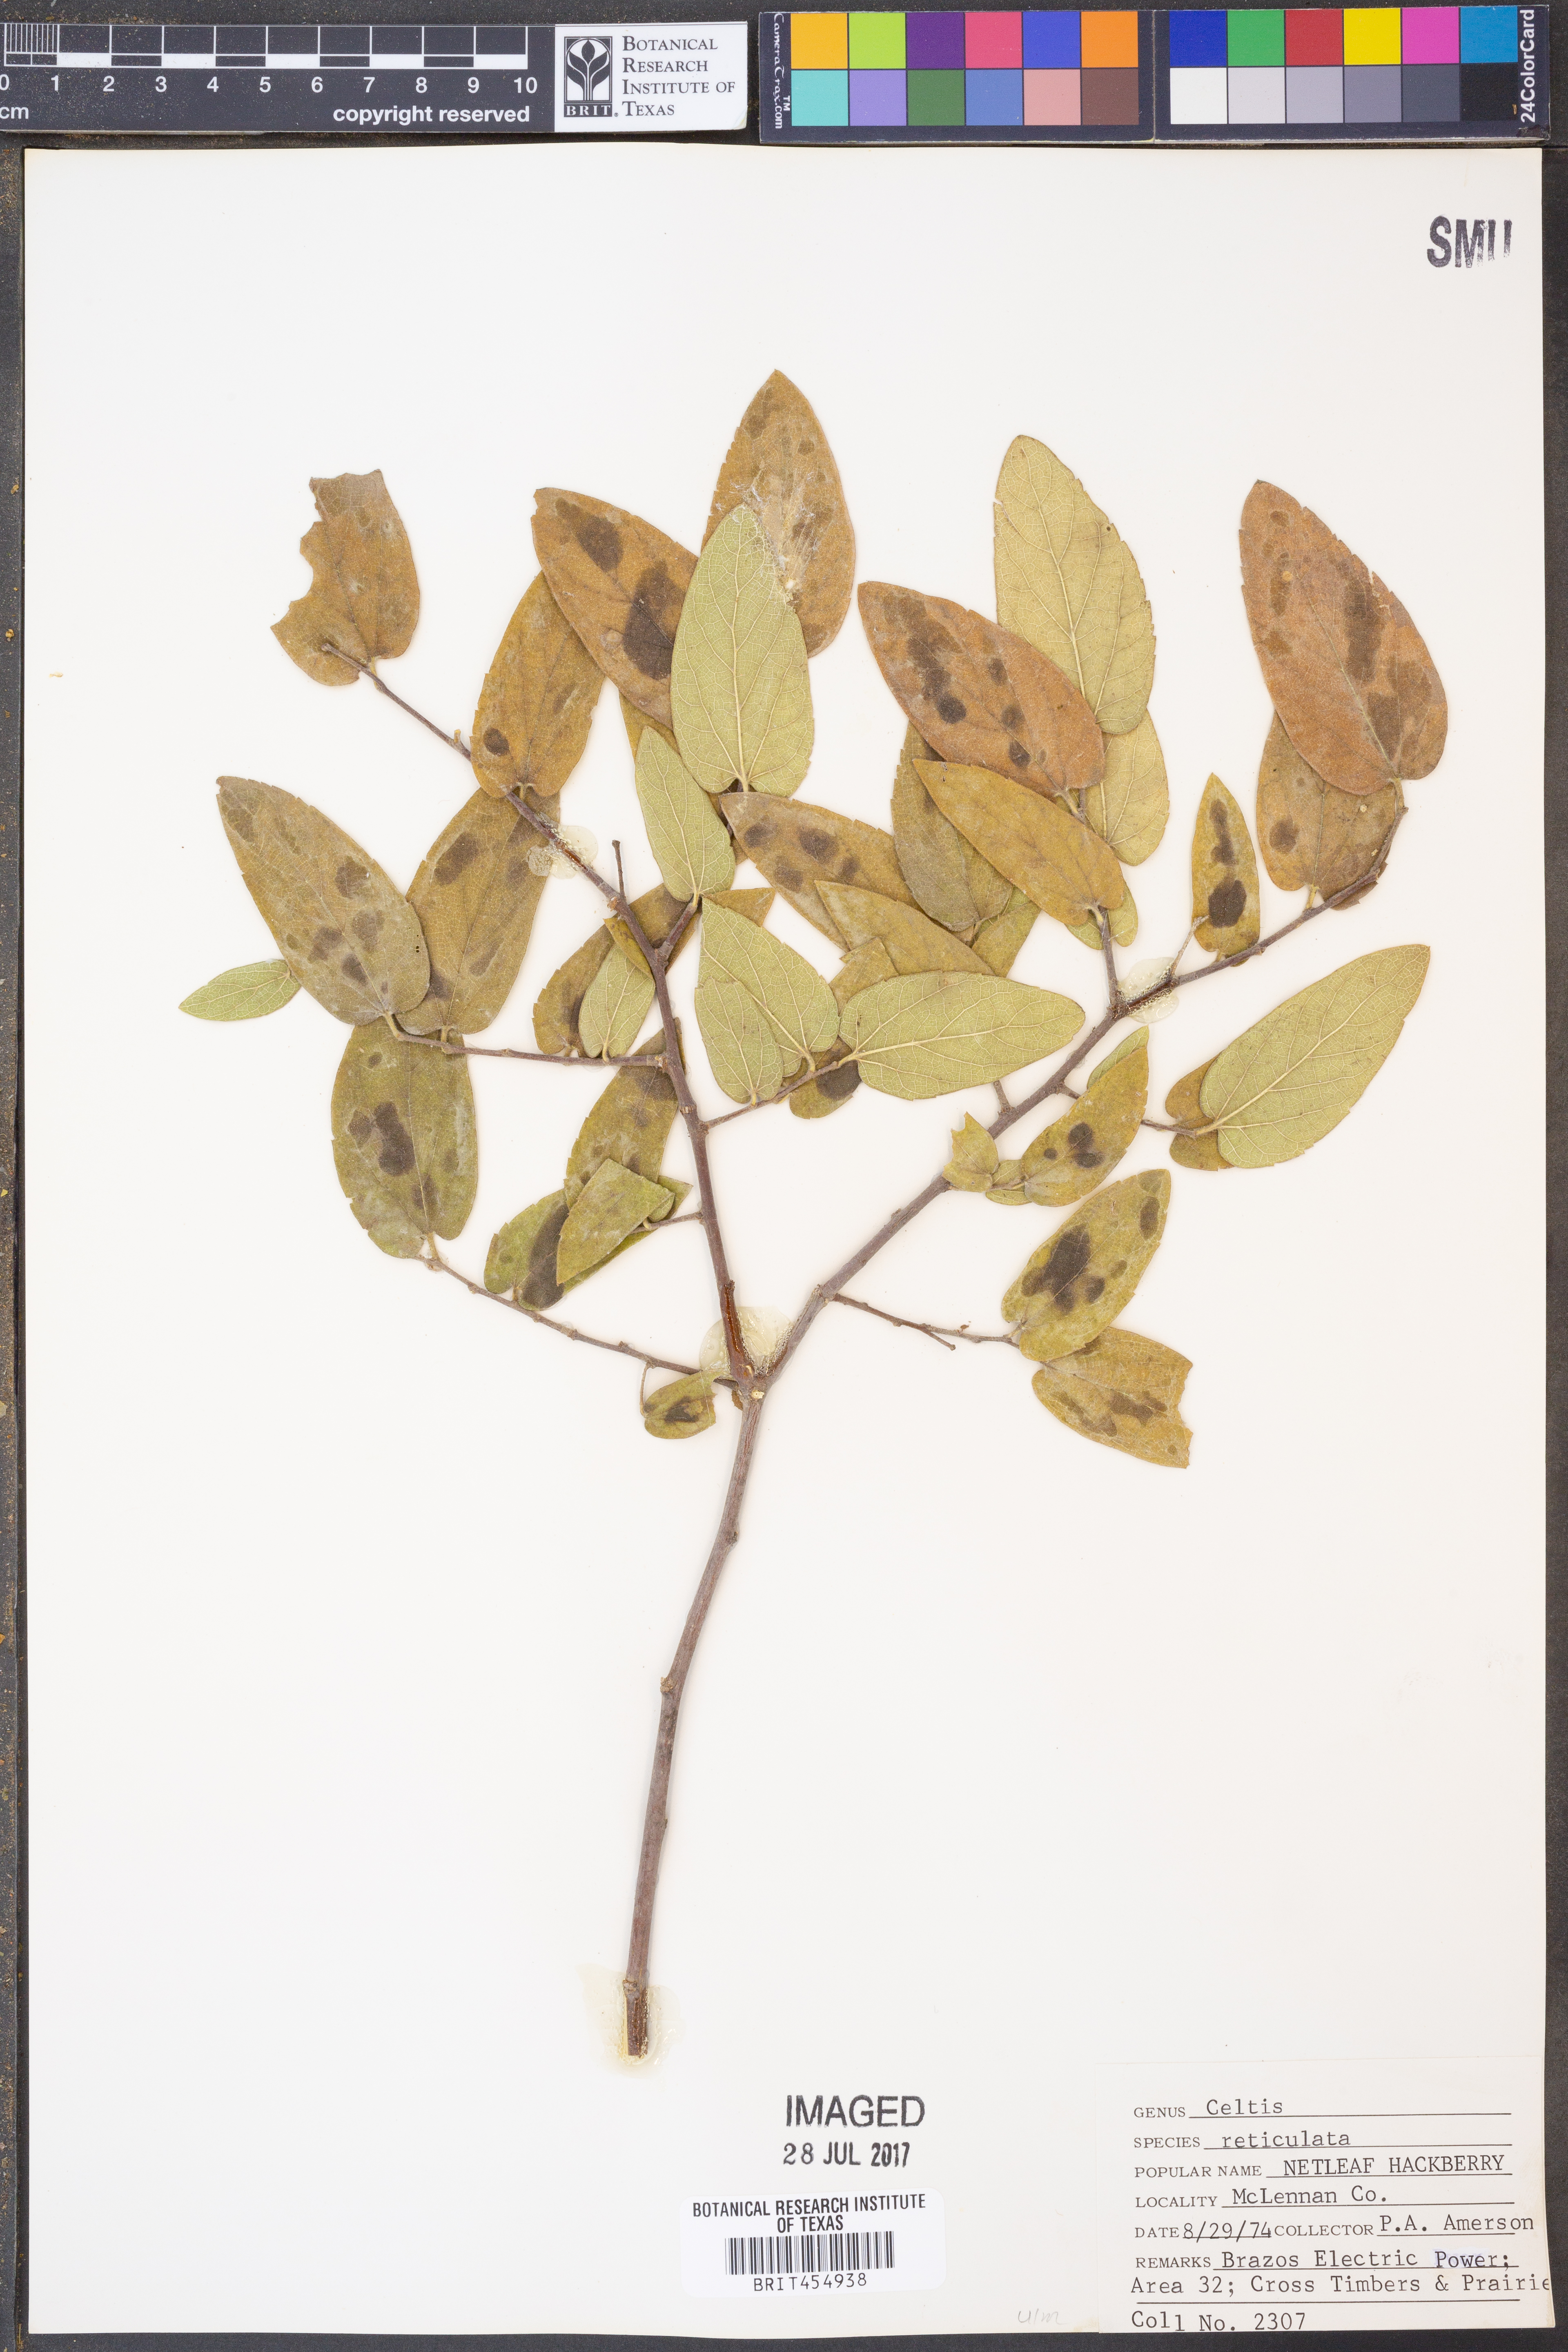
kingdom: Plantae
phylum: Tracheophyta
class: Magnoliopsida
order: Rosales
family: Cannabaceae
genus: Celtis
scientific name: Celtis reticulata
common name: Netleaf hackberry
